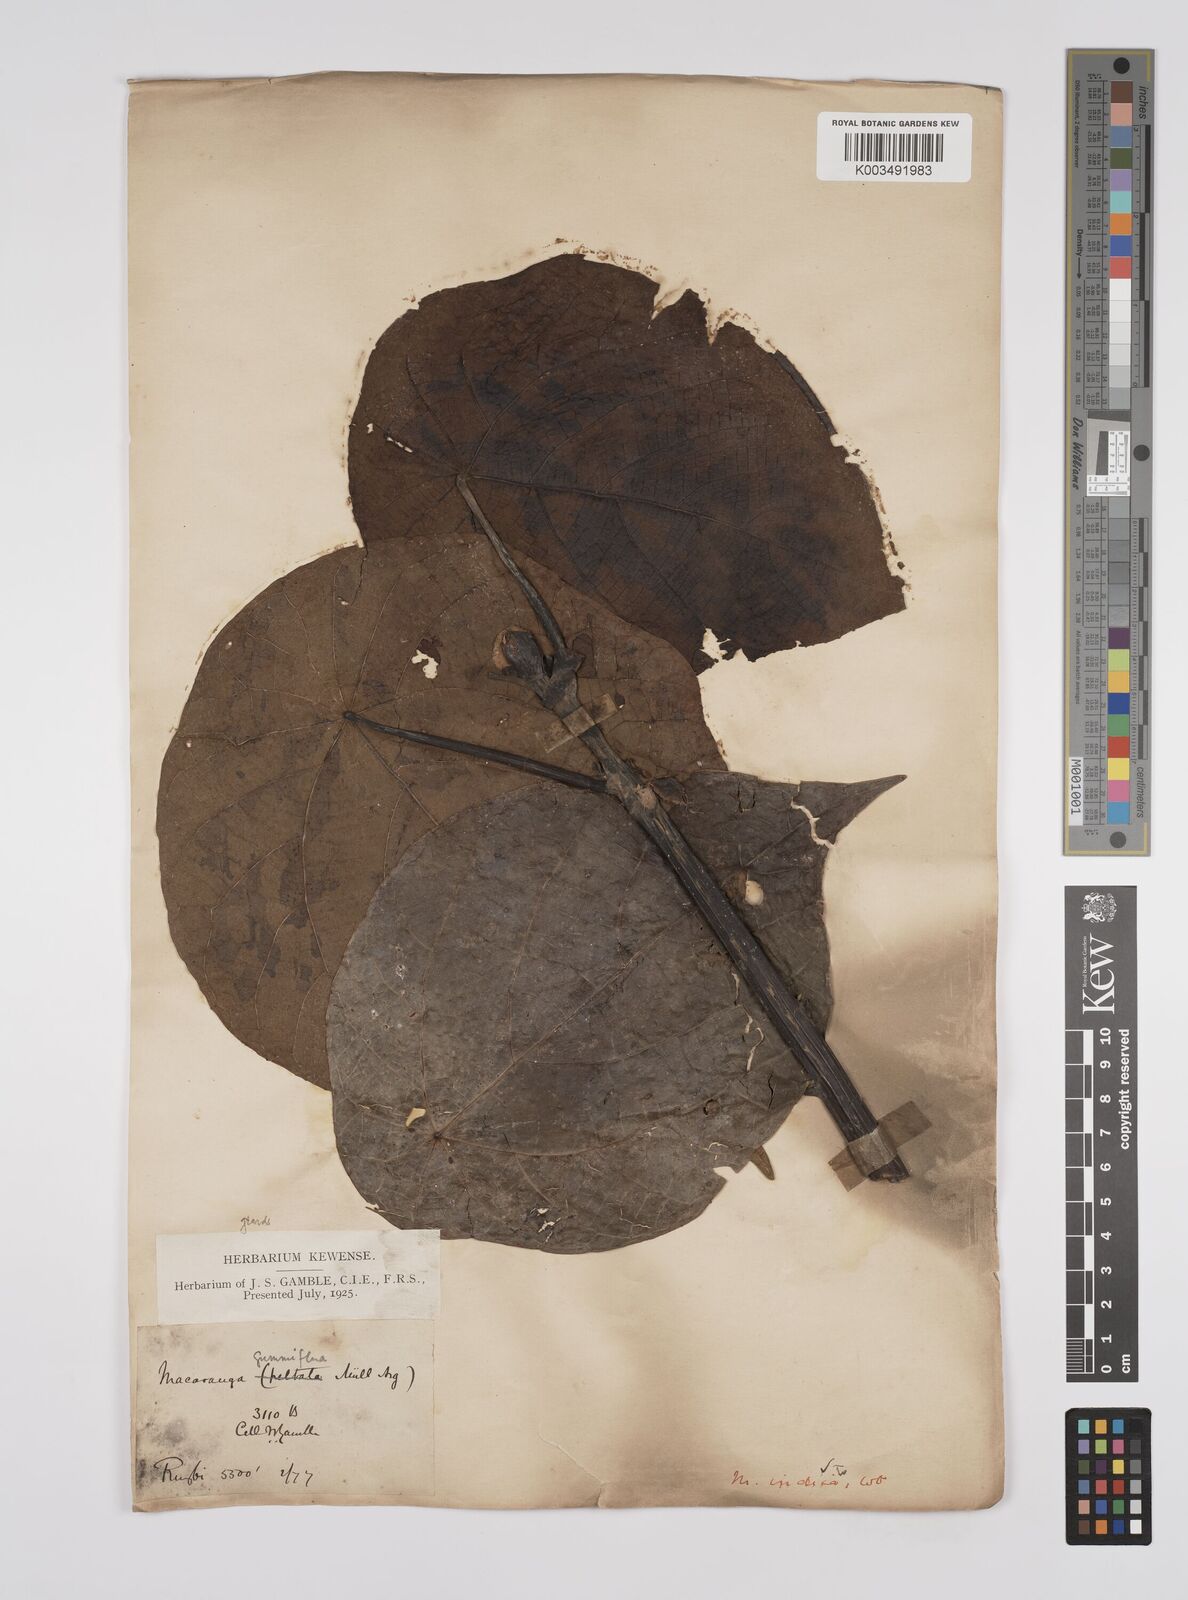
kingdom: Plantae
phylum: Tracheophyta
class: Magnoliopsida
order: Malpighiales
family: Euphorbiaceae
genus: Macaranga
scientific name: Macaranga indica
